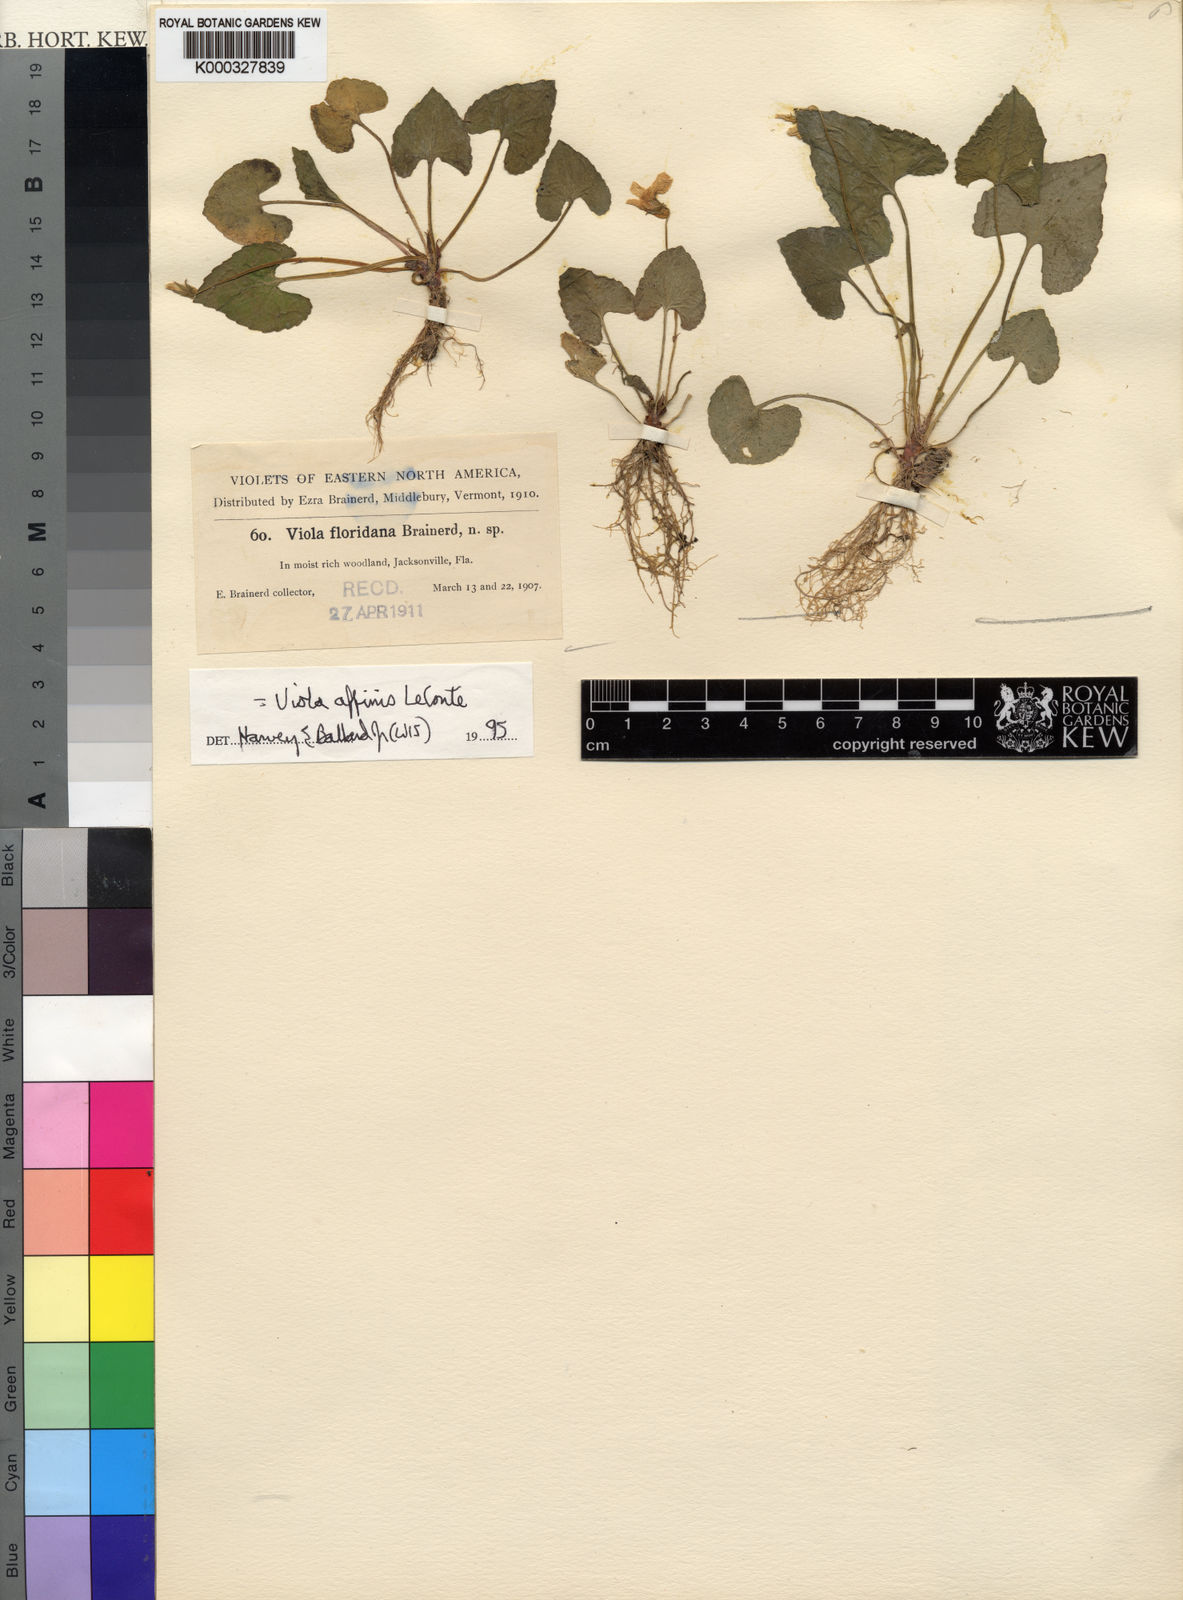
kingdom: Plantae
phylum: Tracheophyta
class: Magnoliopsida
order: Malpighiales
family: Violaceae
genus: Viola
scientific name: Viola floridana
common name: Florida violet
